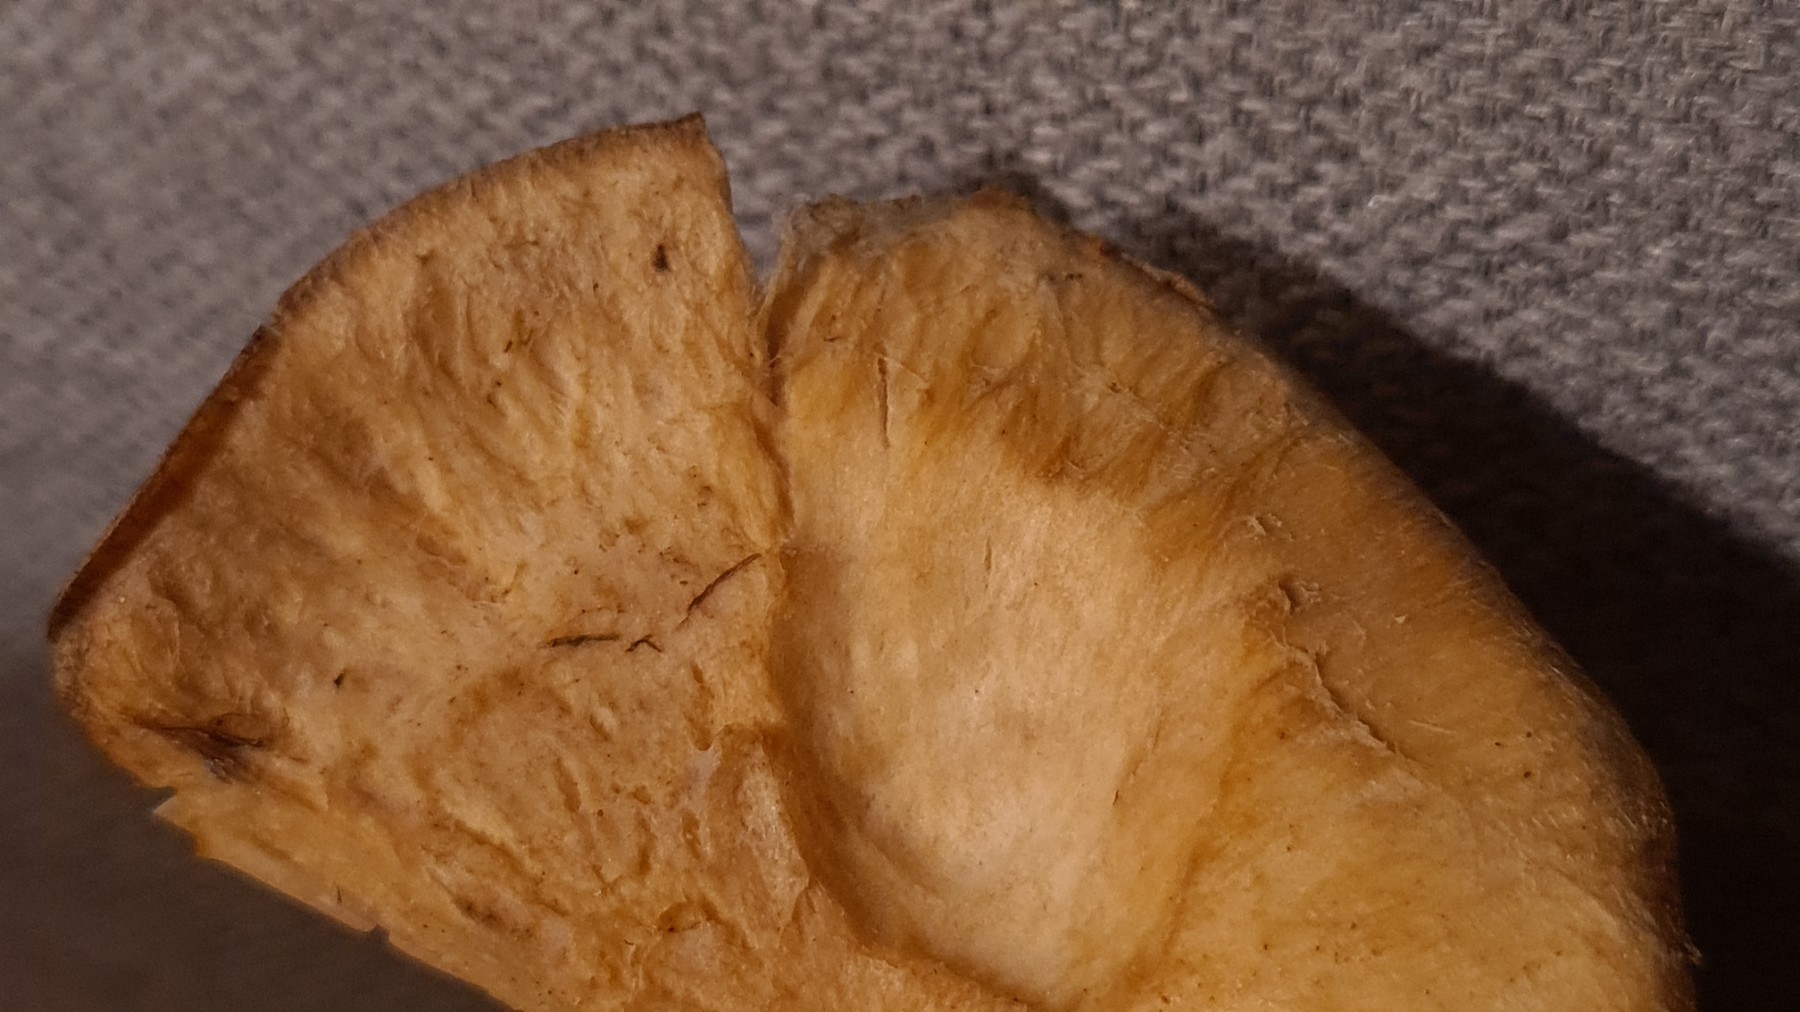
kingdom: Fungi
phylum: Basidiomycota
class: Agaricomycetes
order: Russulales
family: Russulaceae
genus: Lactarius
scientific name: Lactarius pubescens
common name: dunet mælkehat
